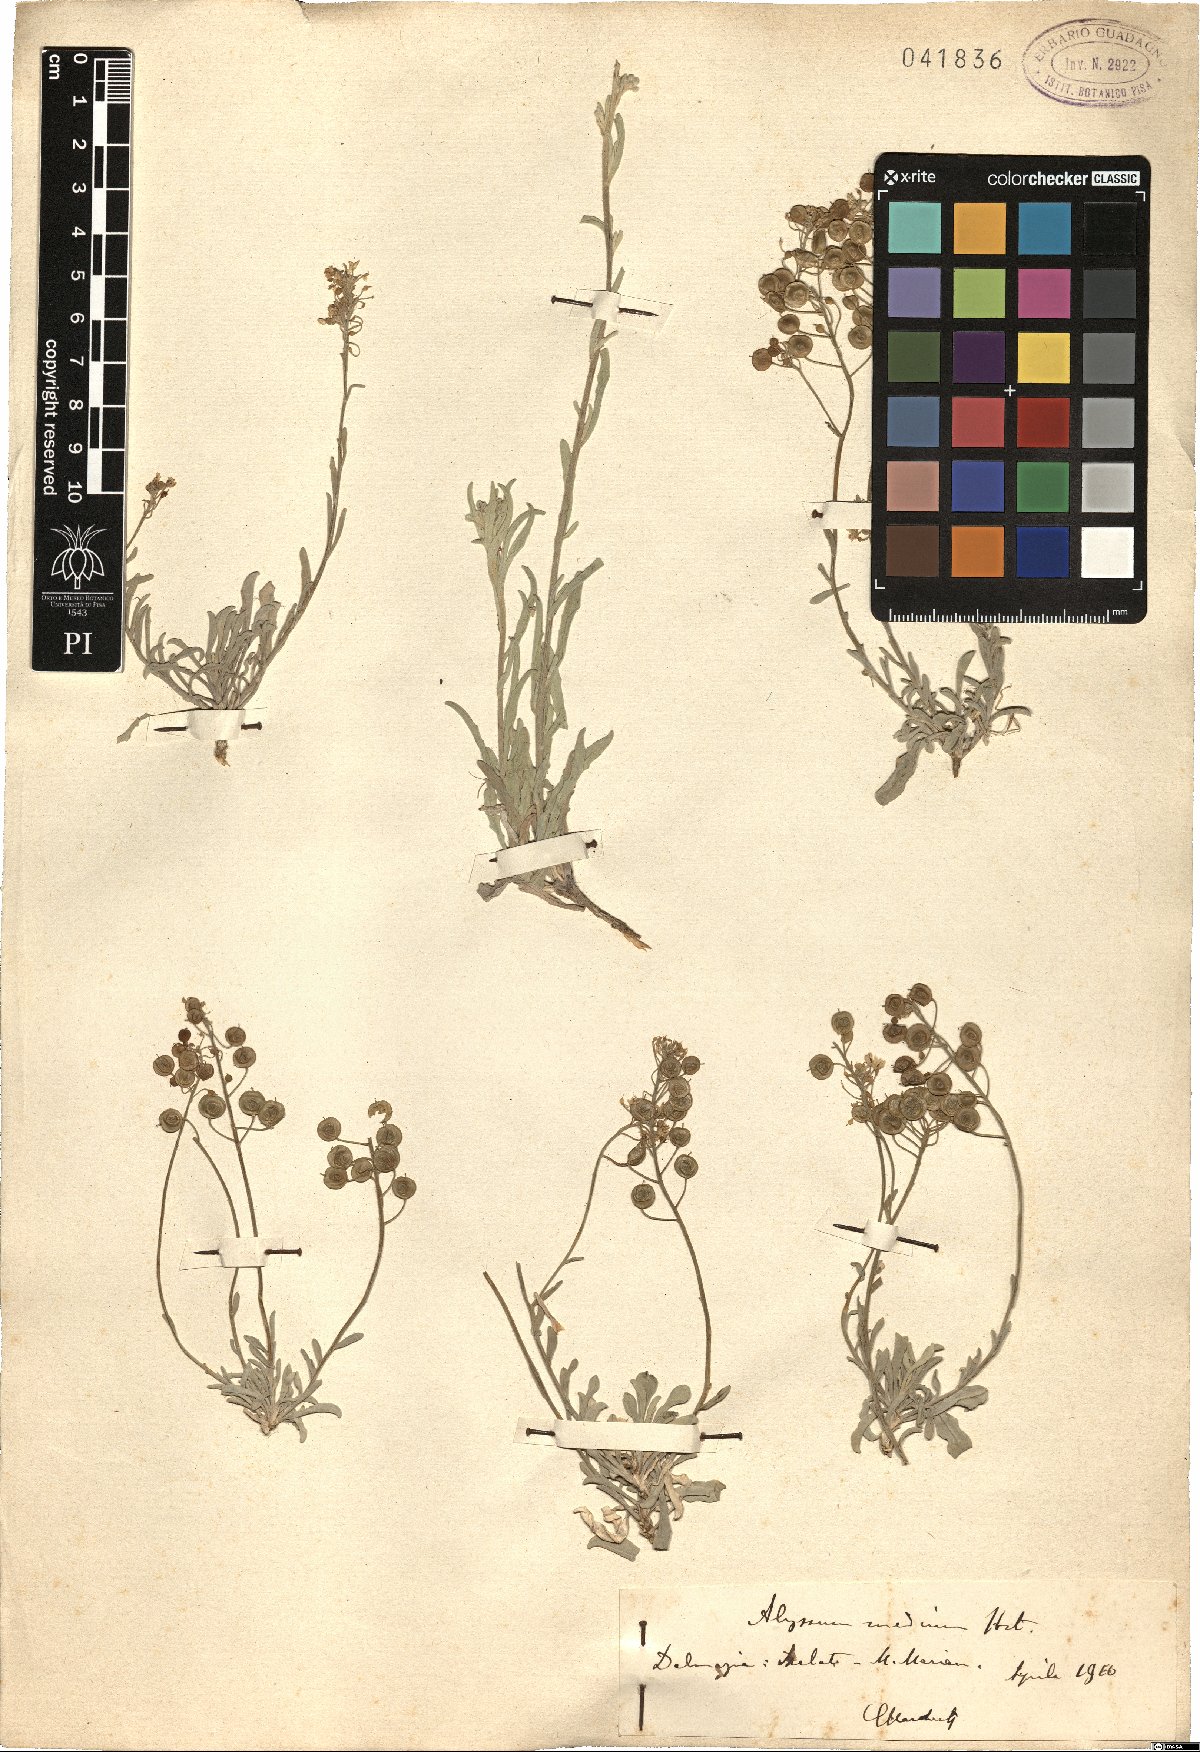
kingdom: Plantae
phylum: Tracheophyta
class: Magnoliopsida
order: Brassicales
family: Brassicaceae
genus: Aurinia
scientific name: Aurinia leucadea
